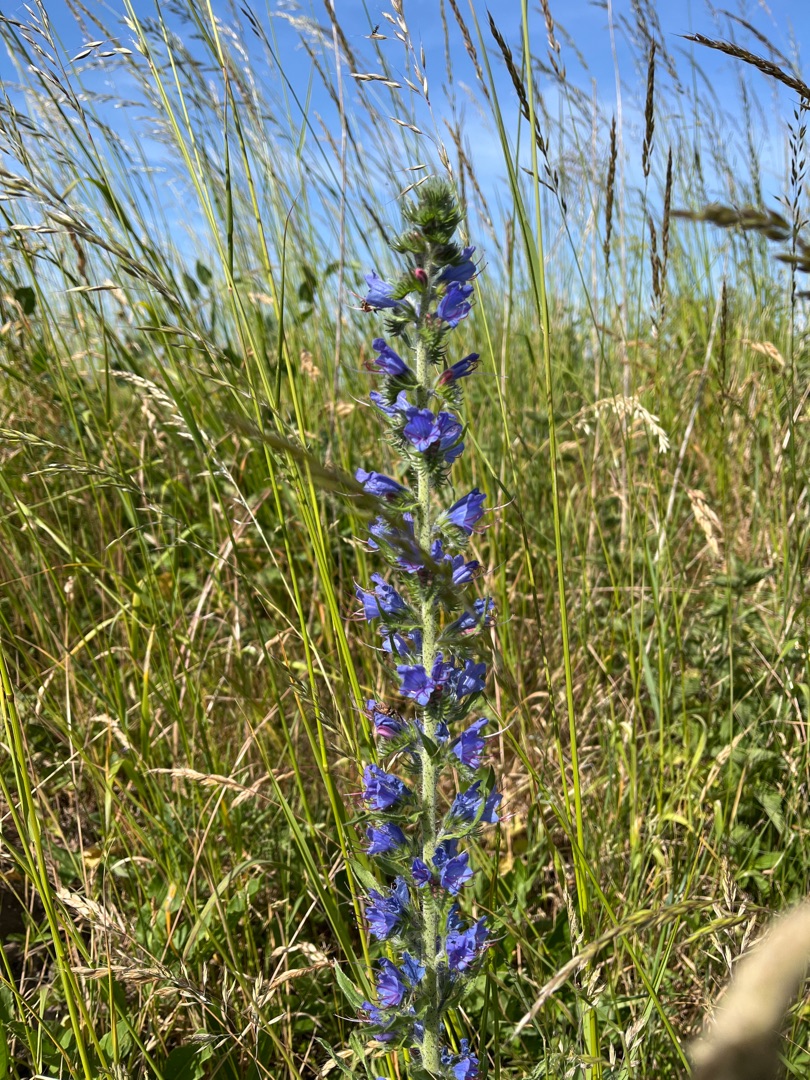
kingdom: Plantae
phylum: Tracheophyta
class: Magnoliopsida
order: Boraginales
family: Boraginaceae
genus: Echium
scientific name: Echium vulgare
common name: Slangehoved
